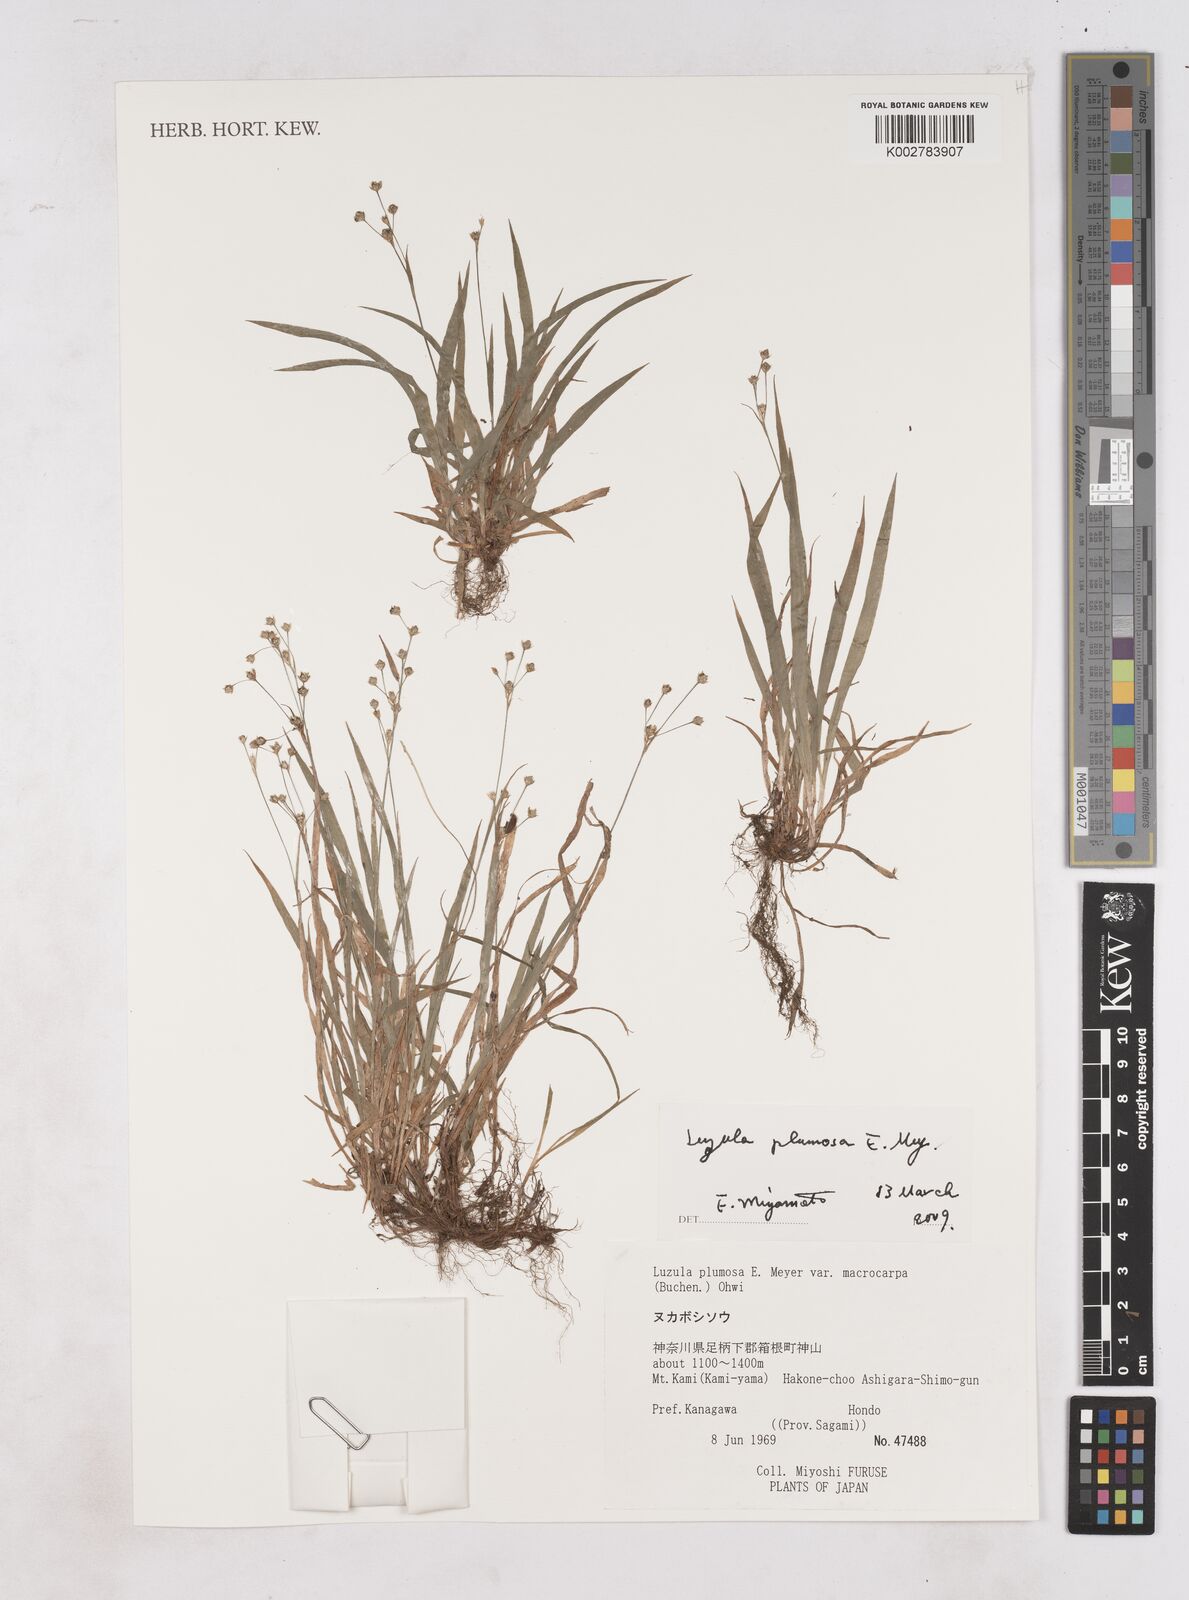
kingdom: Plantae
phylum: Tracheophyta
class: Liliopsida
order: Poales
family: Juncaceae
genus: Luzula
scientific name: Luzula plumosa
